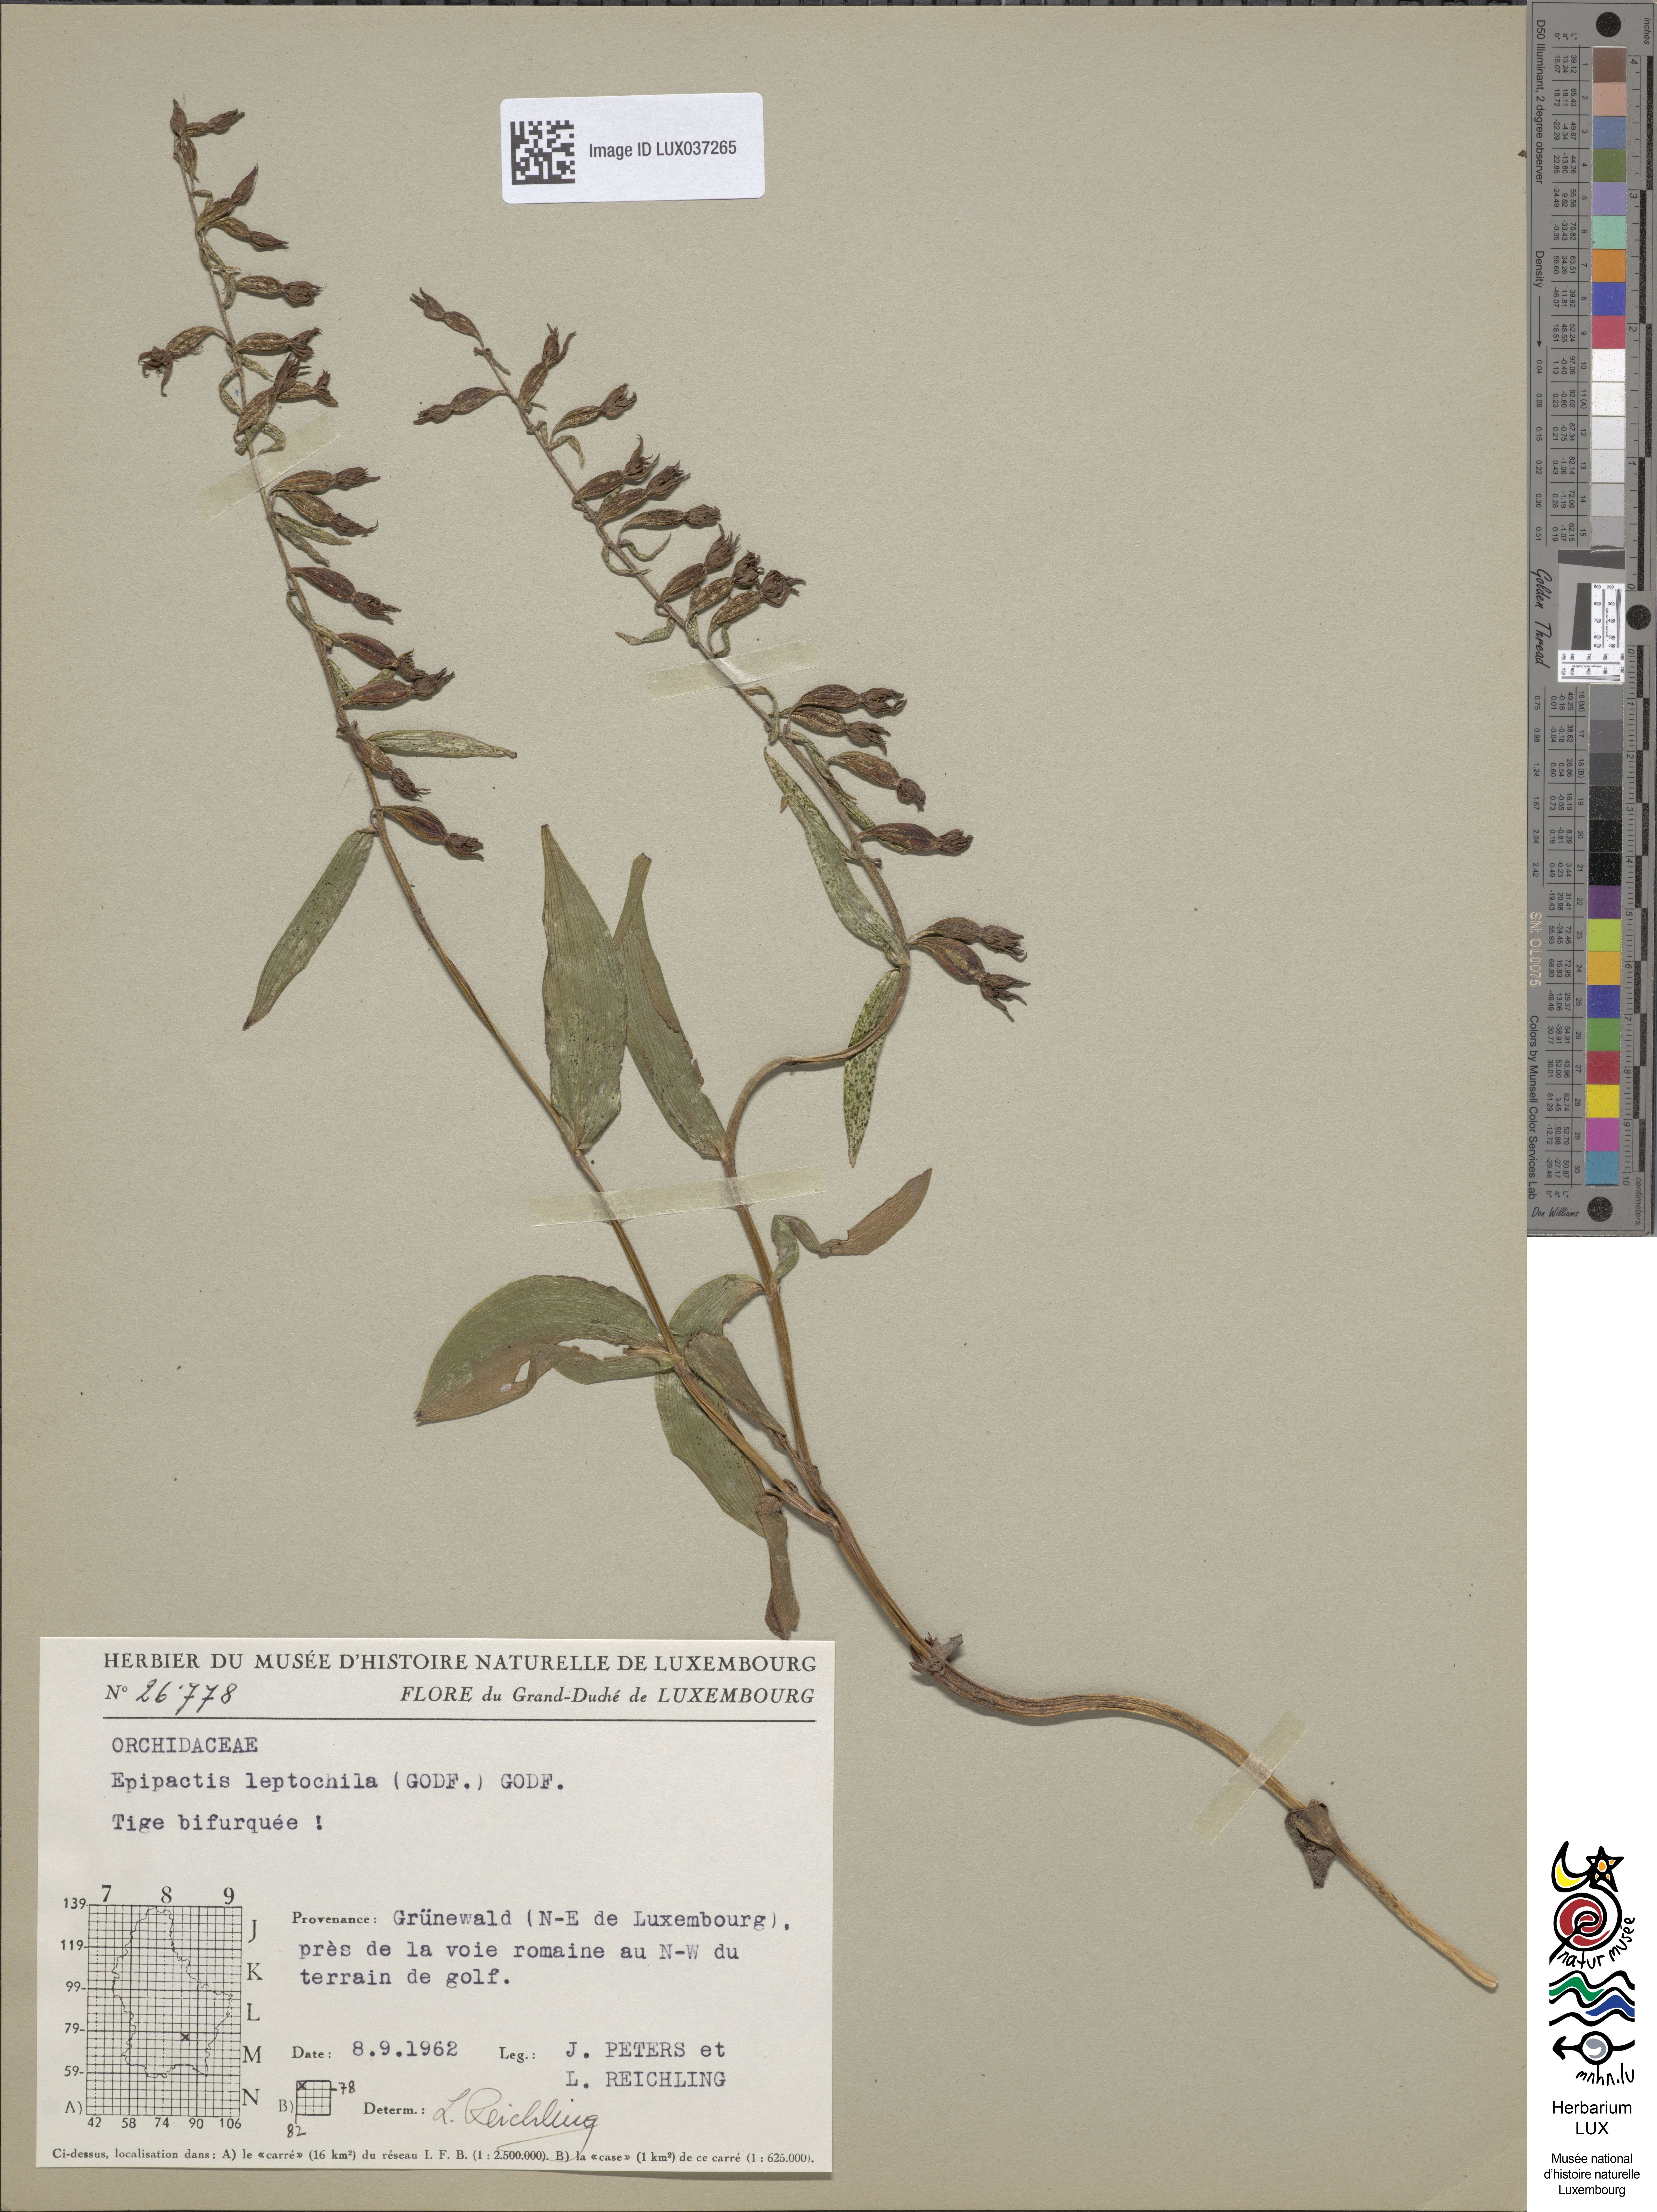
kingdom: Plantae
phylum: Tracheophyta
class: Liliopsida
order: Asparagales
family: Orchidaceae
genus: Epipactis
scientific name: Epipactis leptochila
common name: Narrow-lipped helleborine
